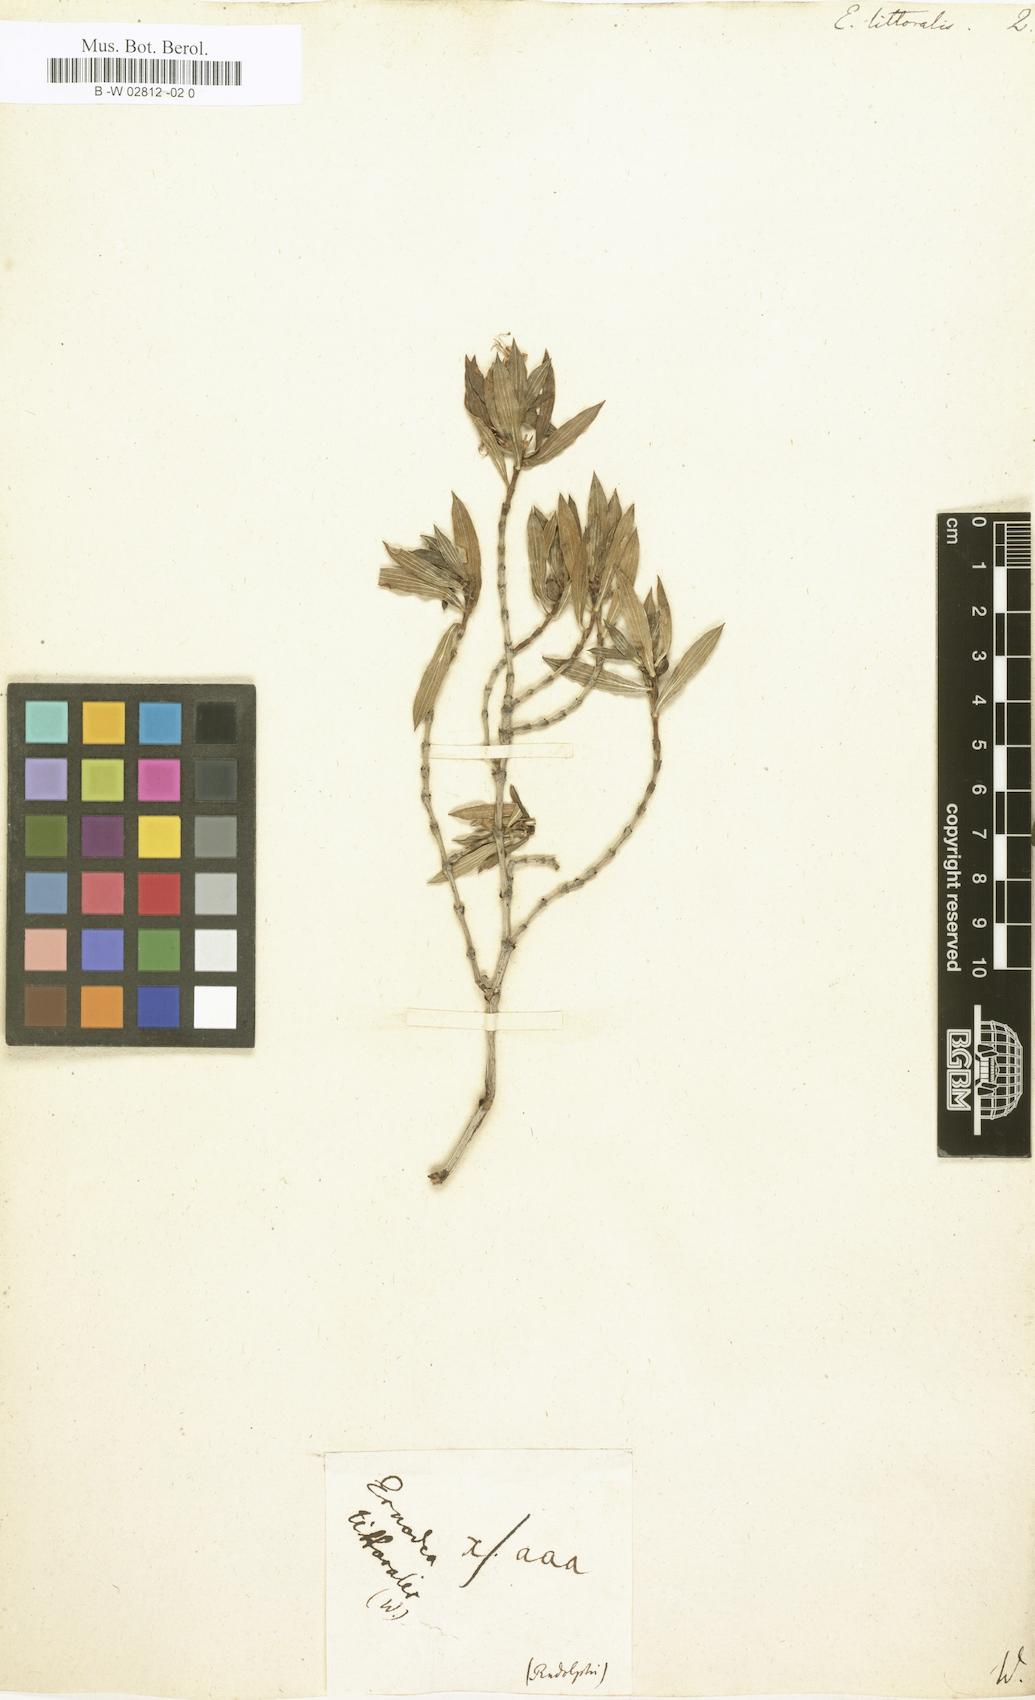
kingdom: Plantae
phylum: Tracheophyta
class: Magnoliopsida
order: Gentianales
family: Rubiaceae
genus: Ernodea
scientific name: Ernodea littoralis
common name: Beach creeper
